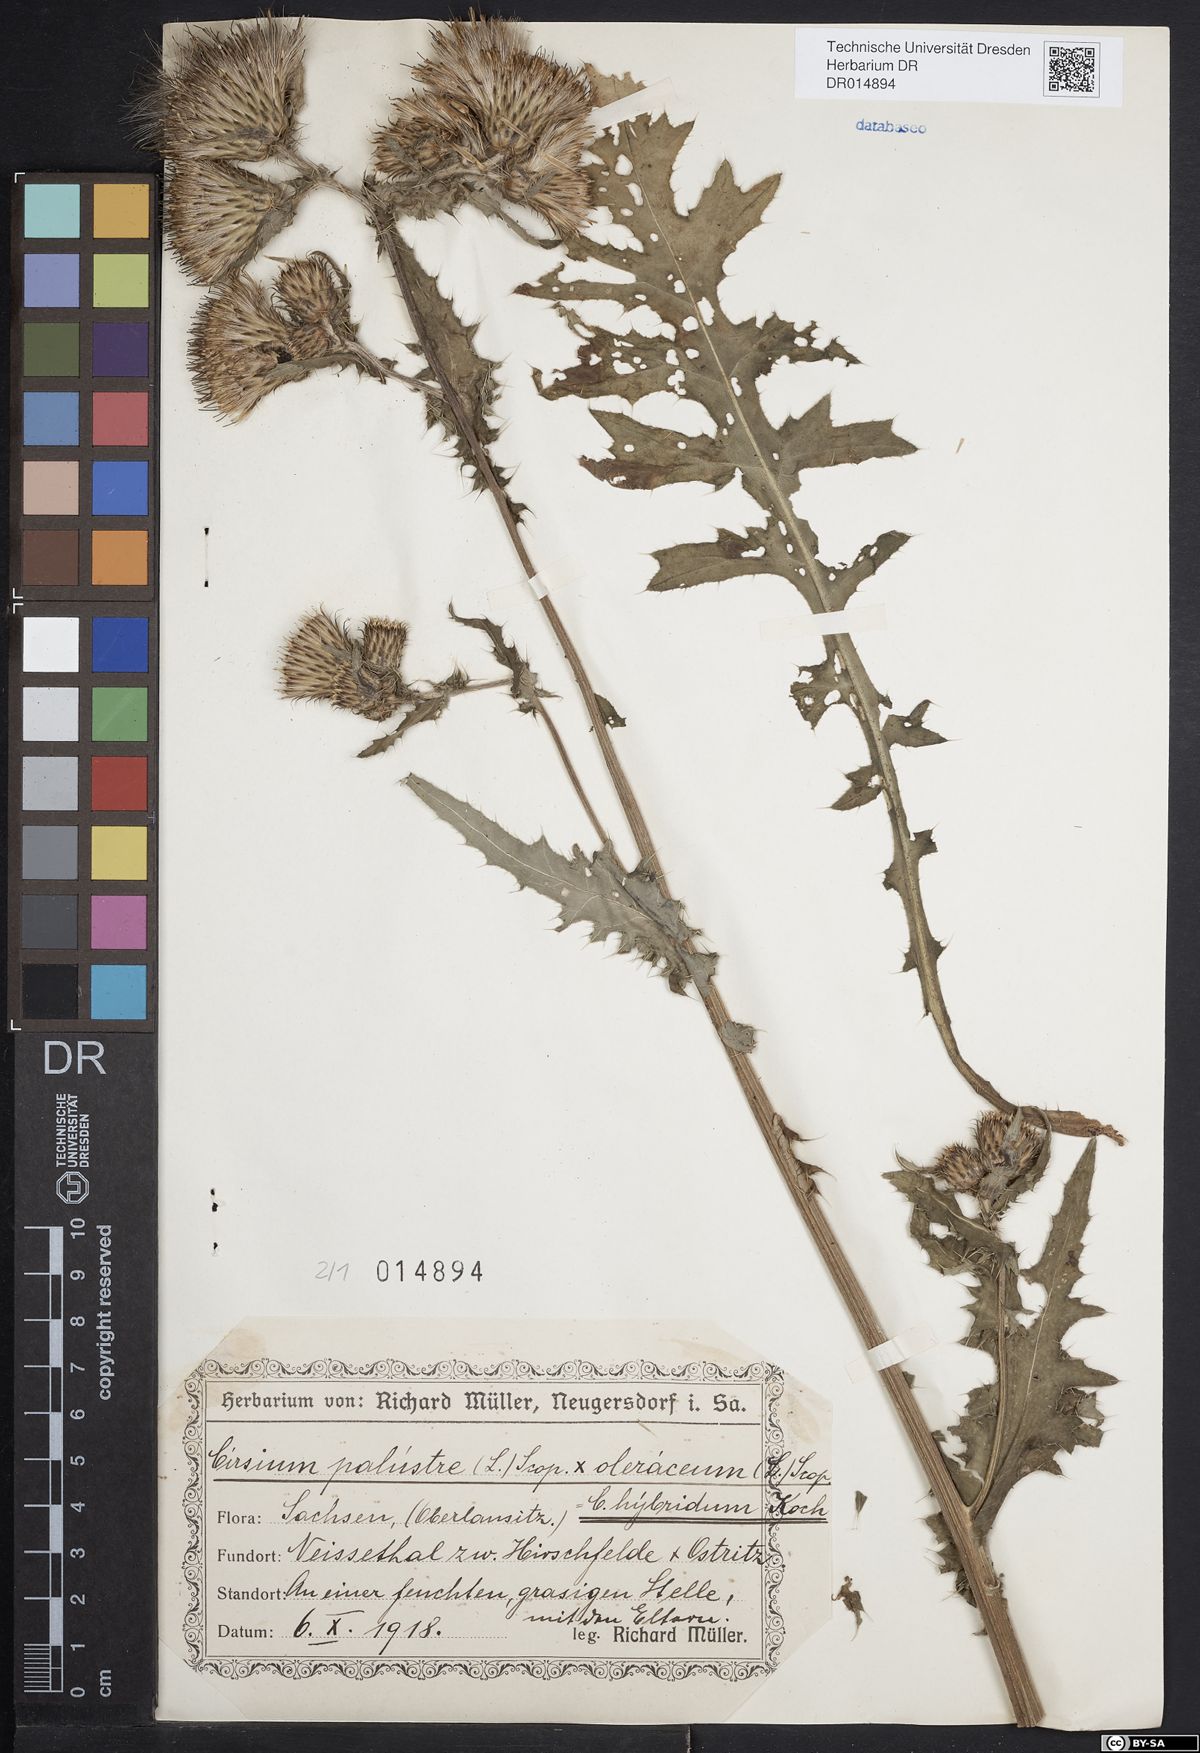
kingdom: Plantae
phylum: Tracheophyta
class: Magnoliopsida
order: Asterales
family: Asteraceae
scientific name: Asteraceae
